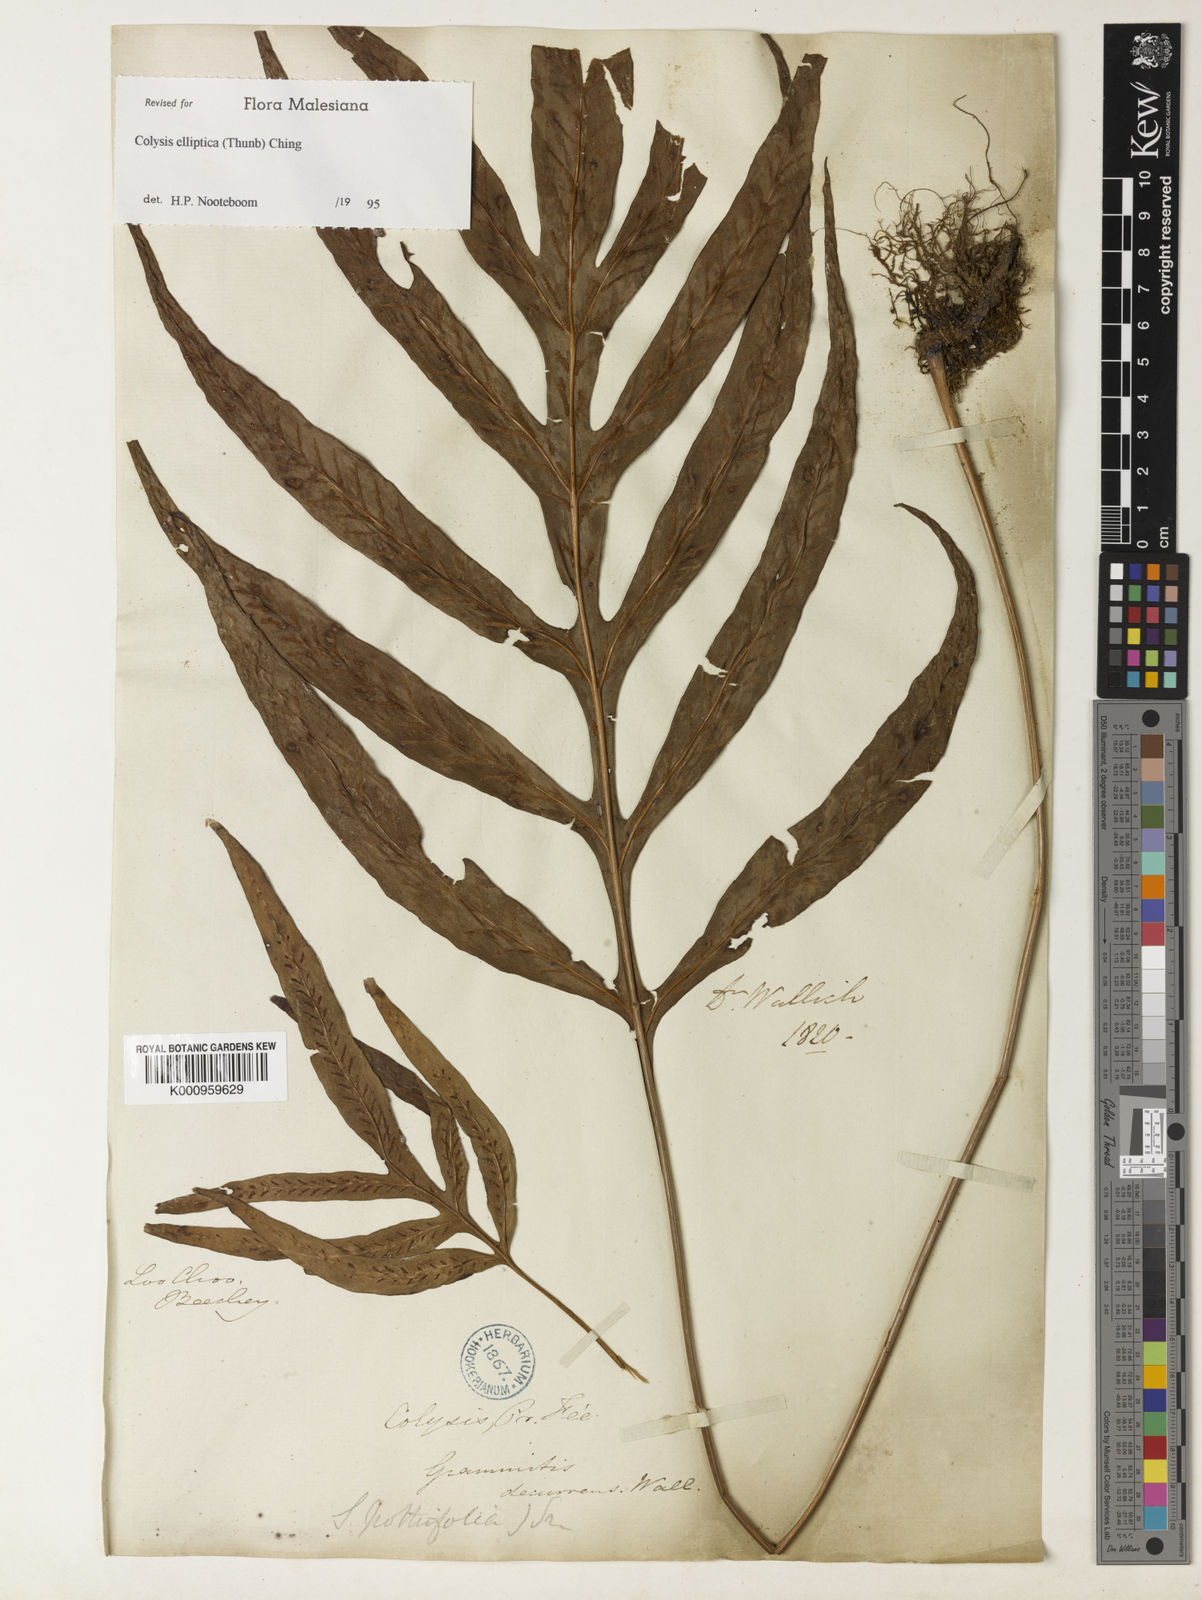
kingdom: Plantae
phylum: Tracheophyta
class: Polypodiopsida
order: Polypodiales
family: Polypodiaceae
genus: Leptochilus
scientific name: Leptochilus ellipticus
